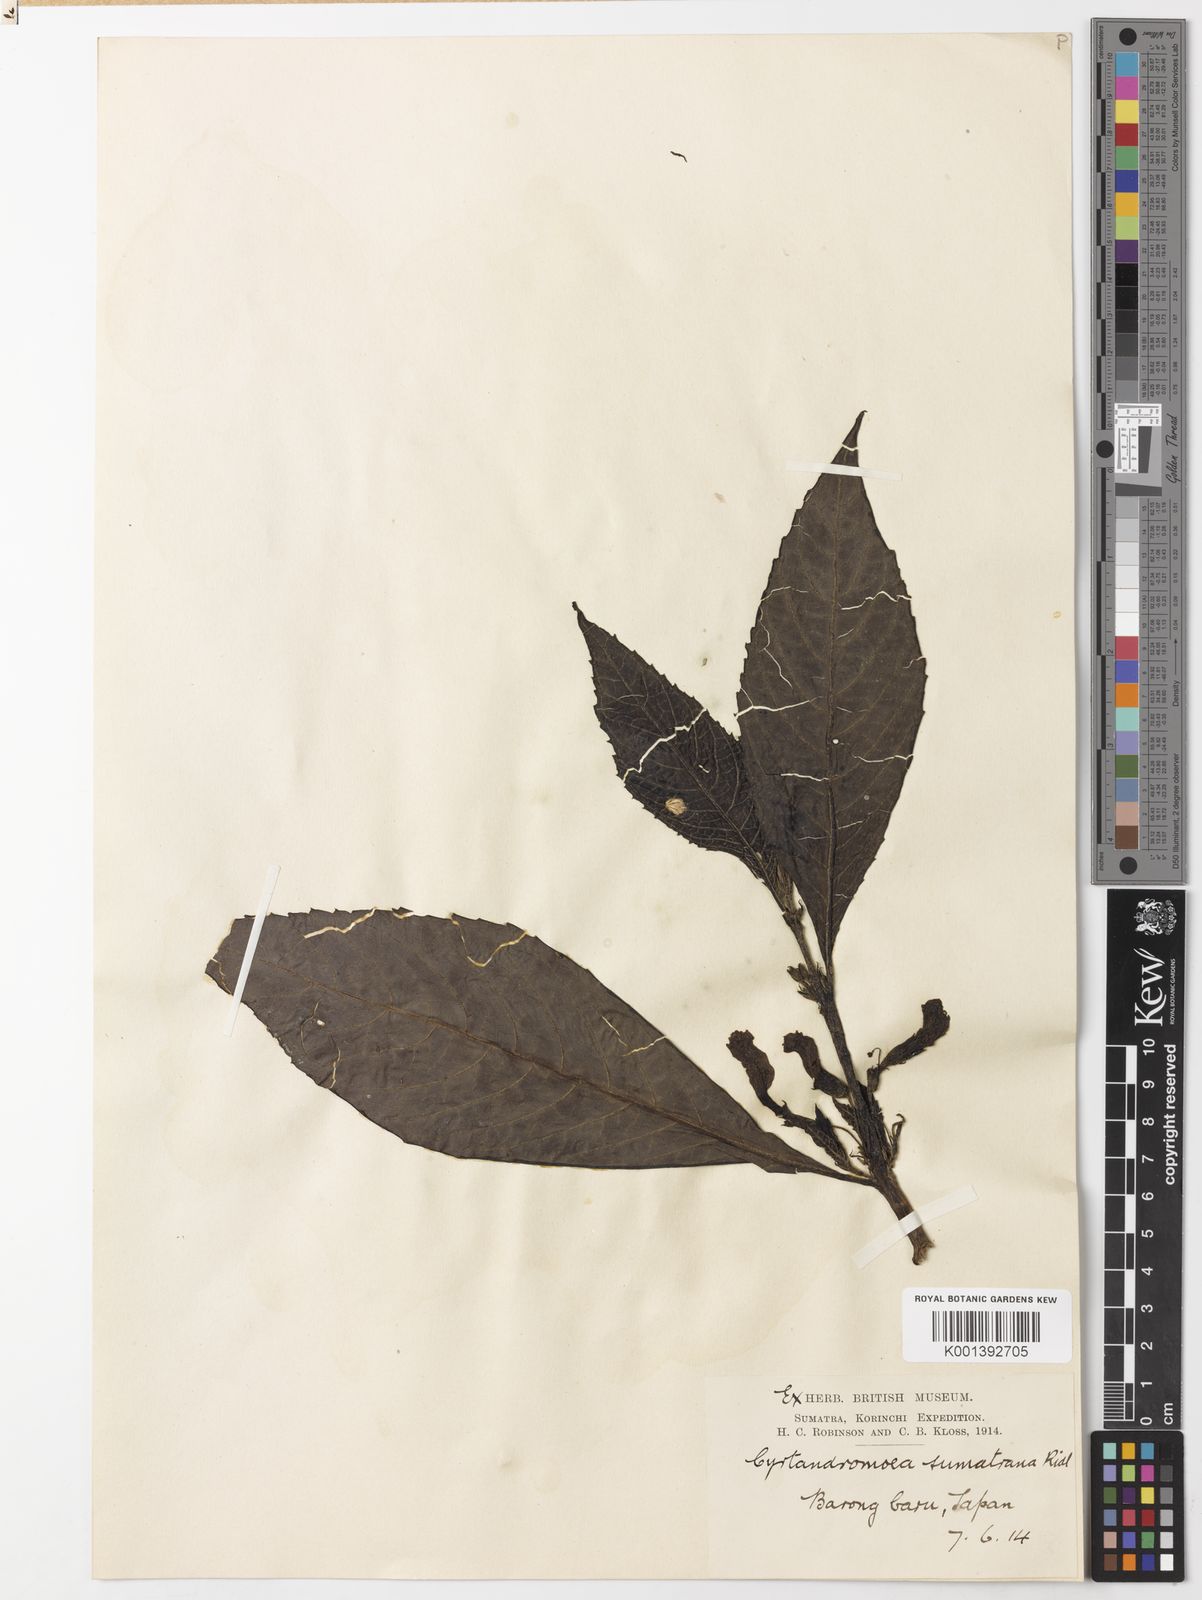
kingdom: Plantae
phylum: Tracheophyta
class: Magnoliopsida
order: Lamiales
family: Phrymaceae
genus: Cyrtandromoea
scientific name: Cyrtandromoea sumatrana
